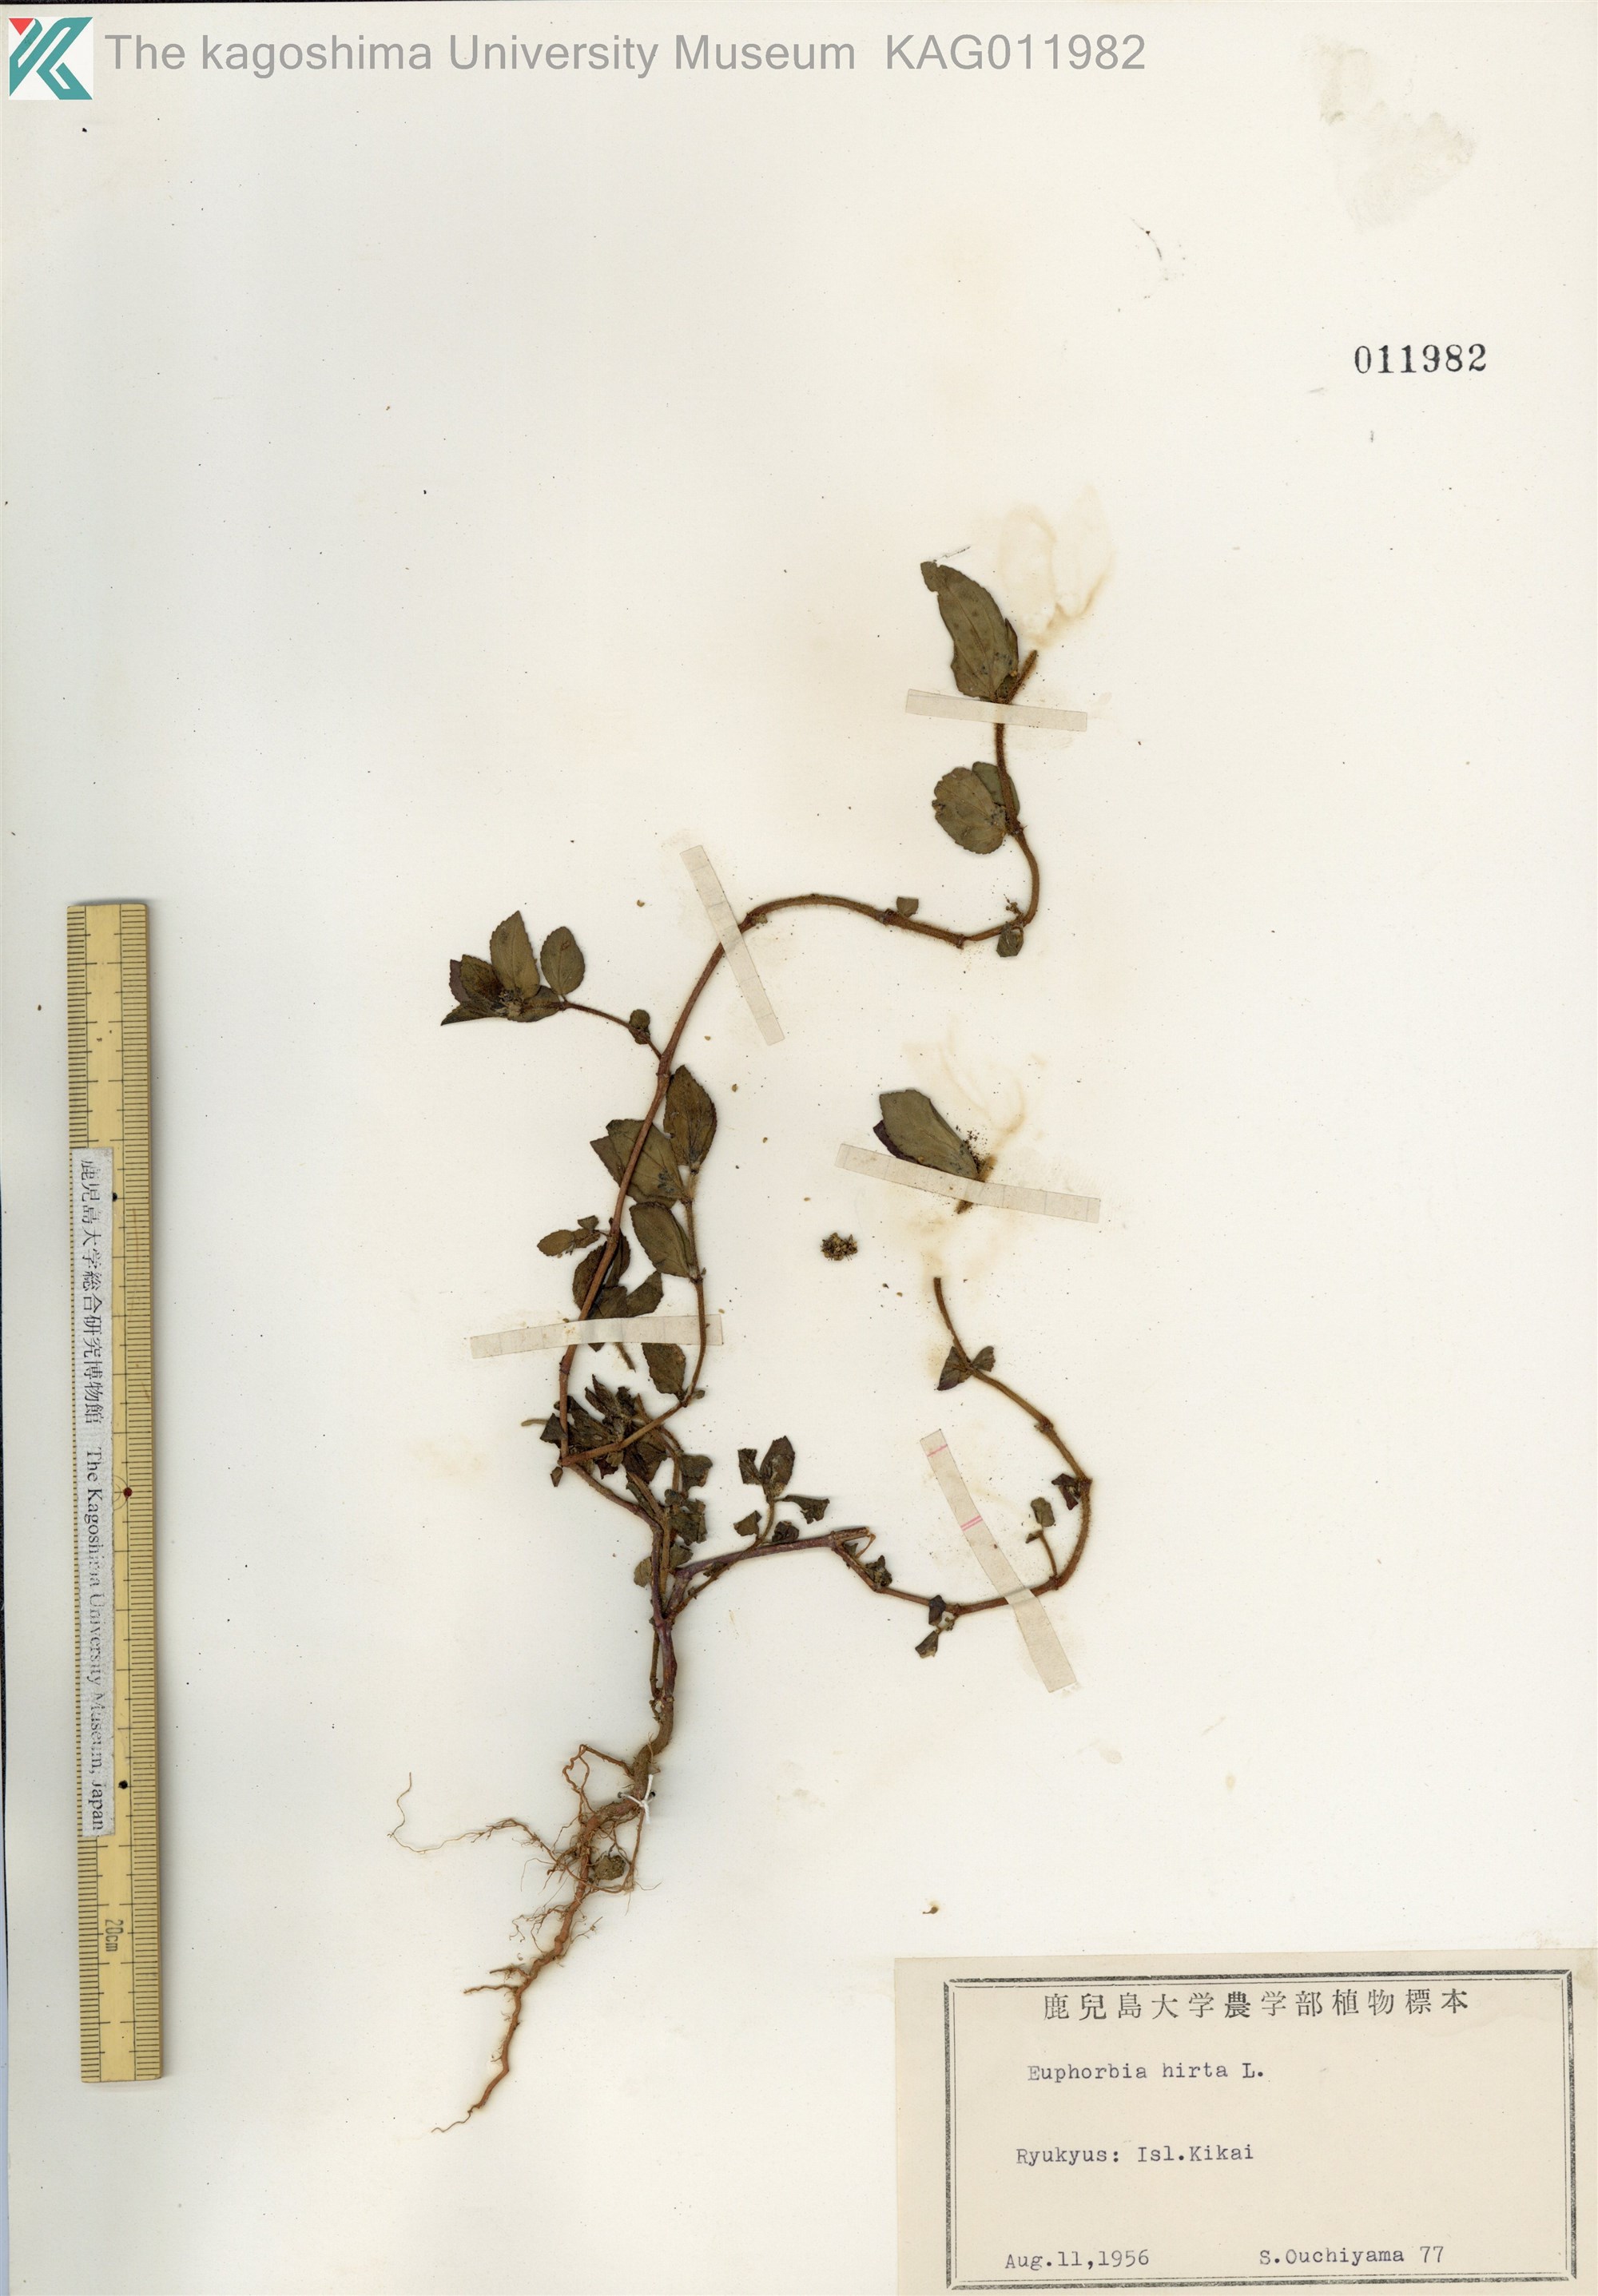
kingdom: Plantae
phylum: Tracheophyta
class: Magnoliopsida
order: Malpighiales
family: Euphorbiaceae
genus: Euphorbia
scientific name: Euphorbia hirta
